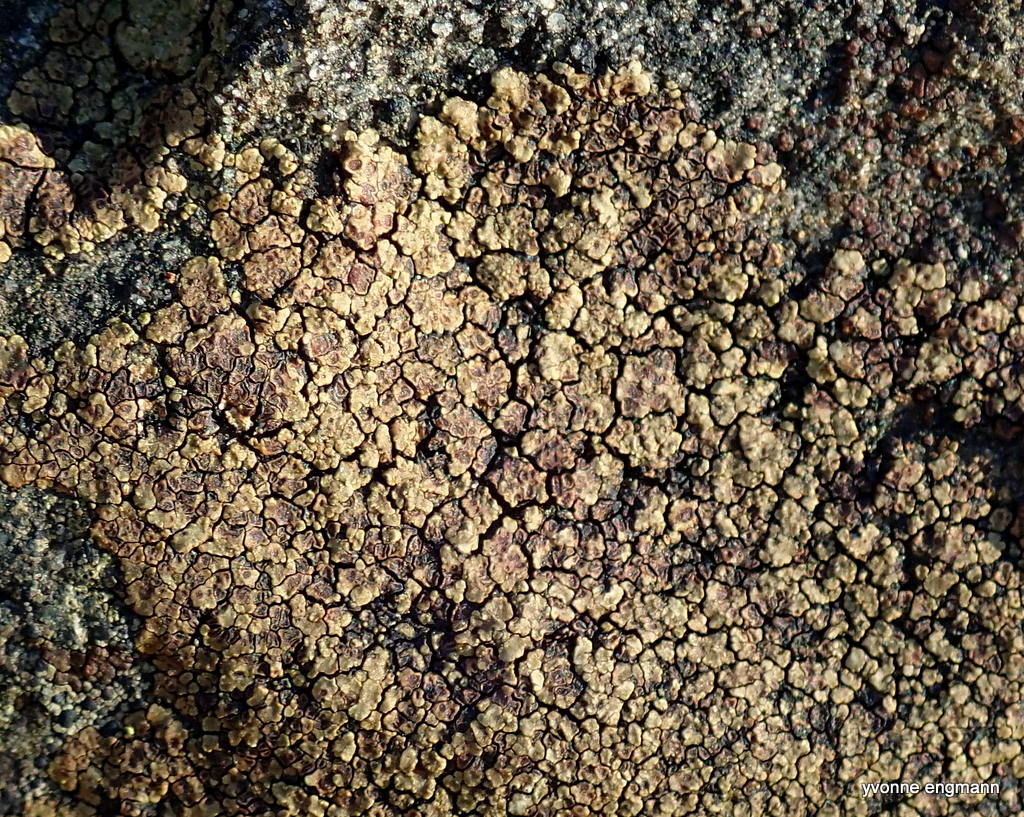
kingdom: Fungi
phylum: Ascomycota
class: Lecanoromycetes
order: Acarosporales
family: Acarosporaceae
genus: Acarospora
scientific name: Acarospora fuscata
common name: brun småsporelav
